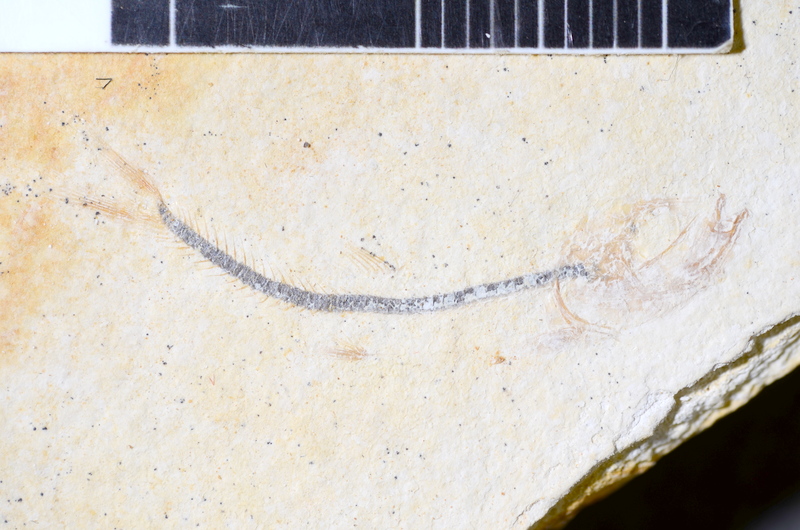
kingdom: Animalia
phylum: Chordata
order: Salmoniformes
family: Orthogonikleithridae
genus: Orthogonikleithrus
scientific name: Orthogonikleithrus hoelli
